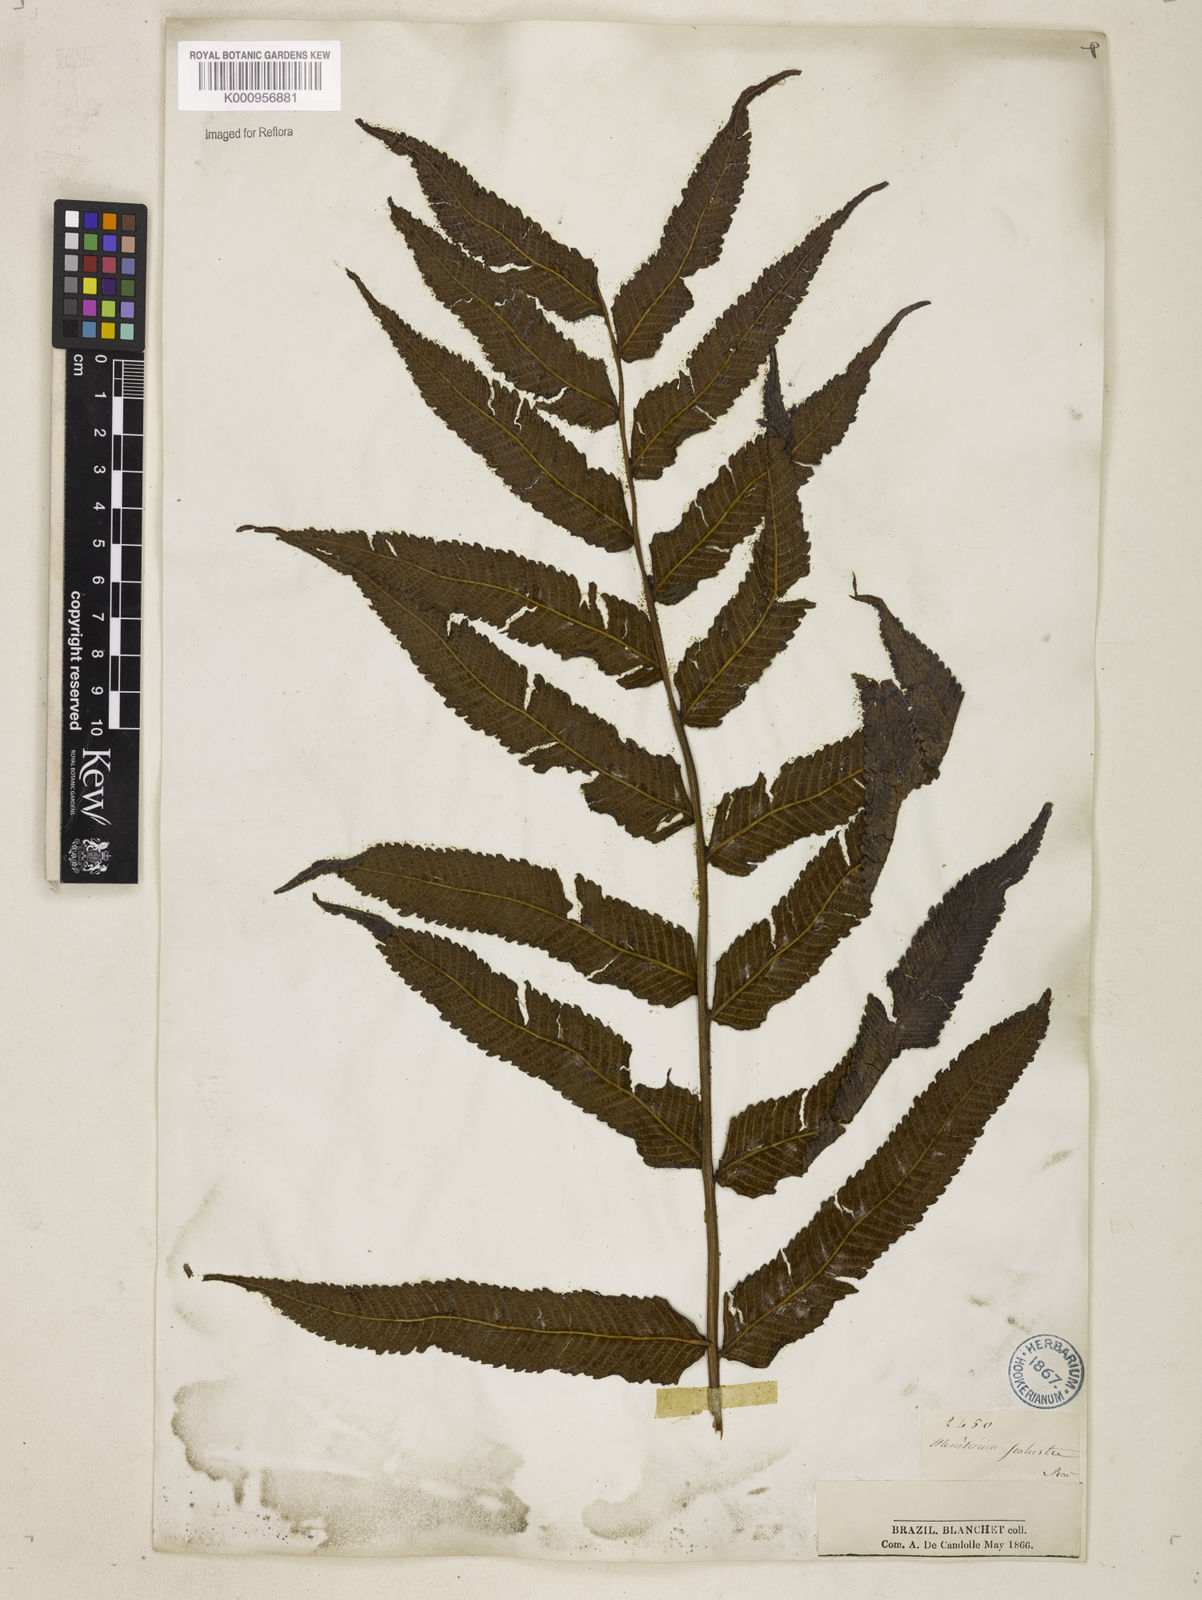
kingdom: Plantae
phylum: Tracheophyta
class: Polypodiopsida
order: Polypodiales
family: Thelypteridaceae
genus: Meniscium
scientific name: Meniscium serratum
